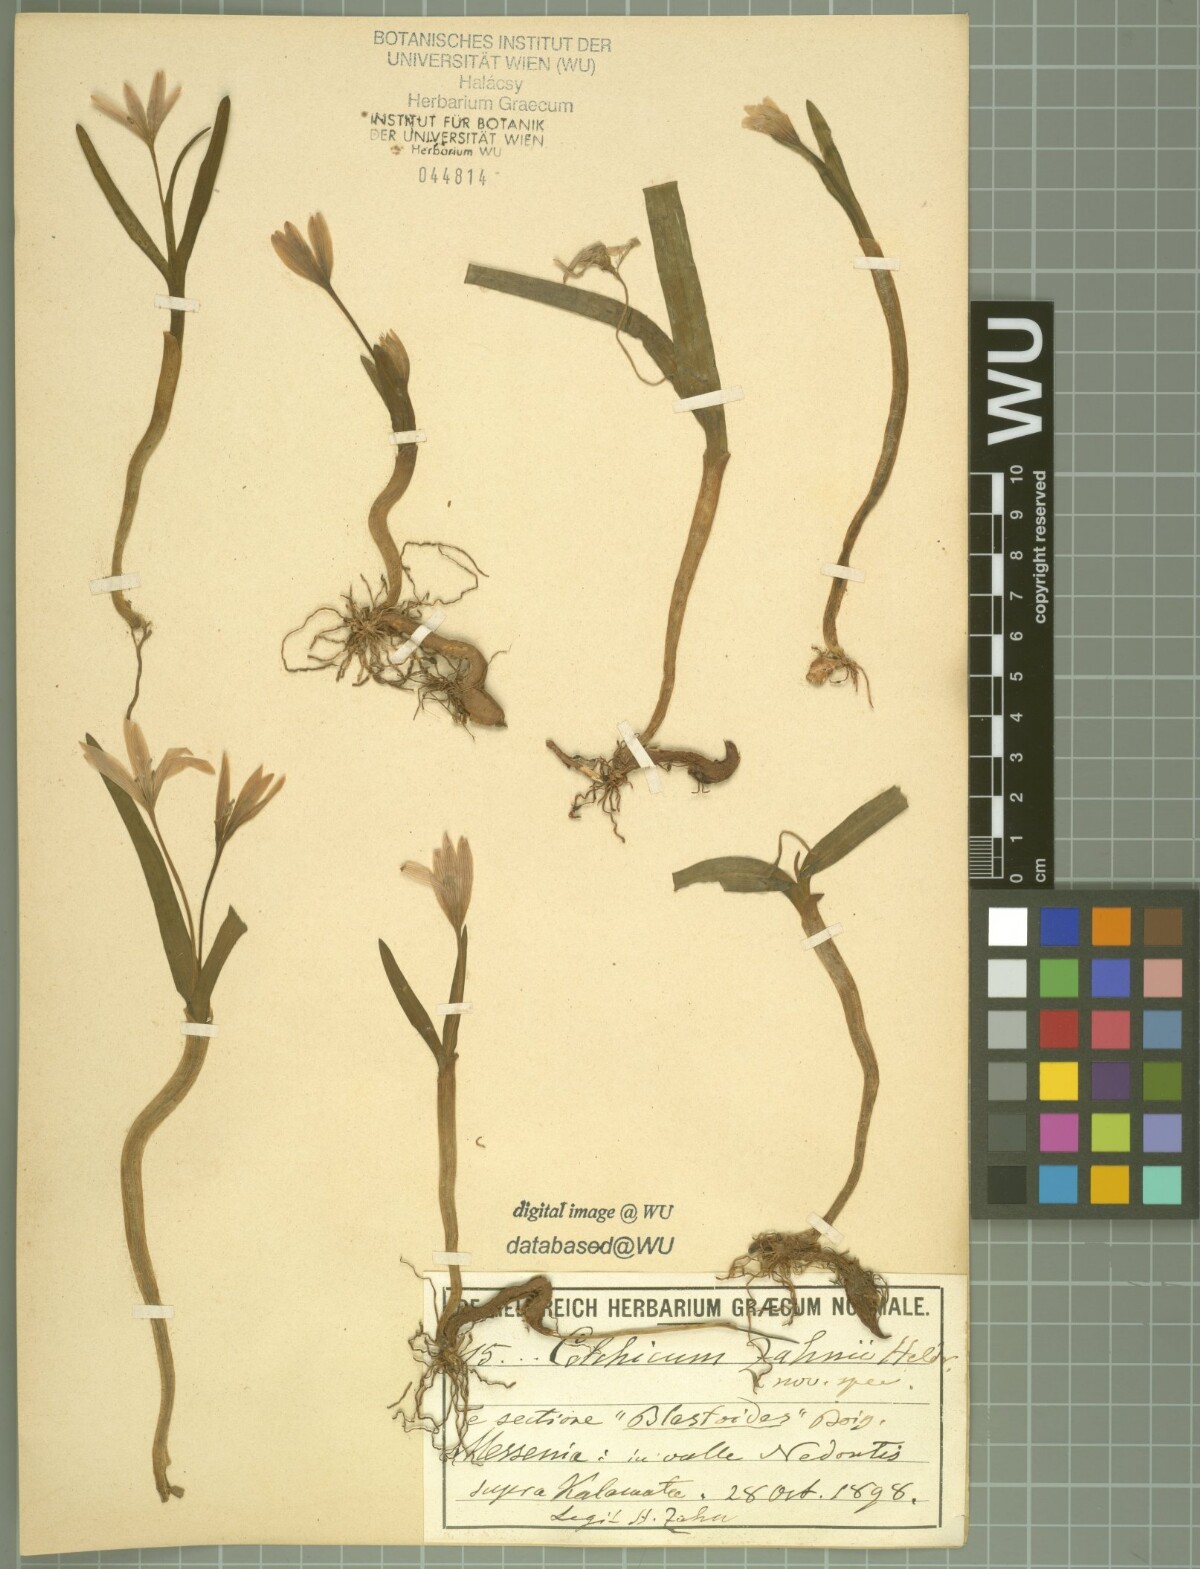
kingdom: Plantae
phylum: Tracheophyta
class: Liliopsida
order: Liliales
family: Colchicaceae
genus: Colchicum
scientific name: Colchicum zahnii
